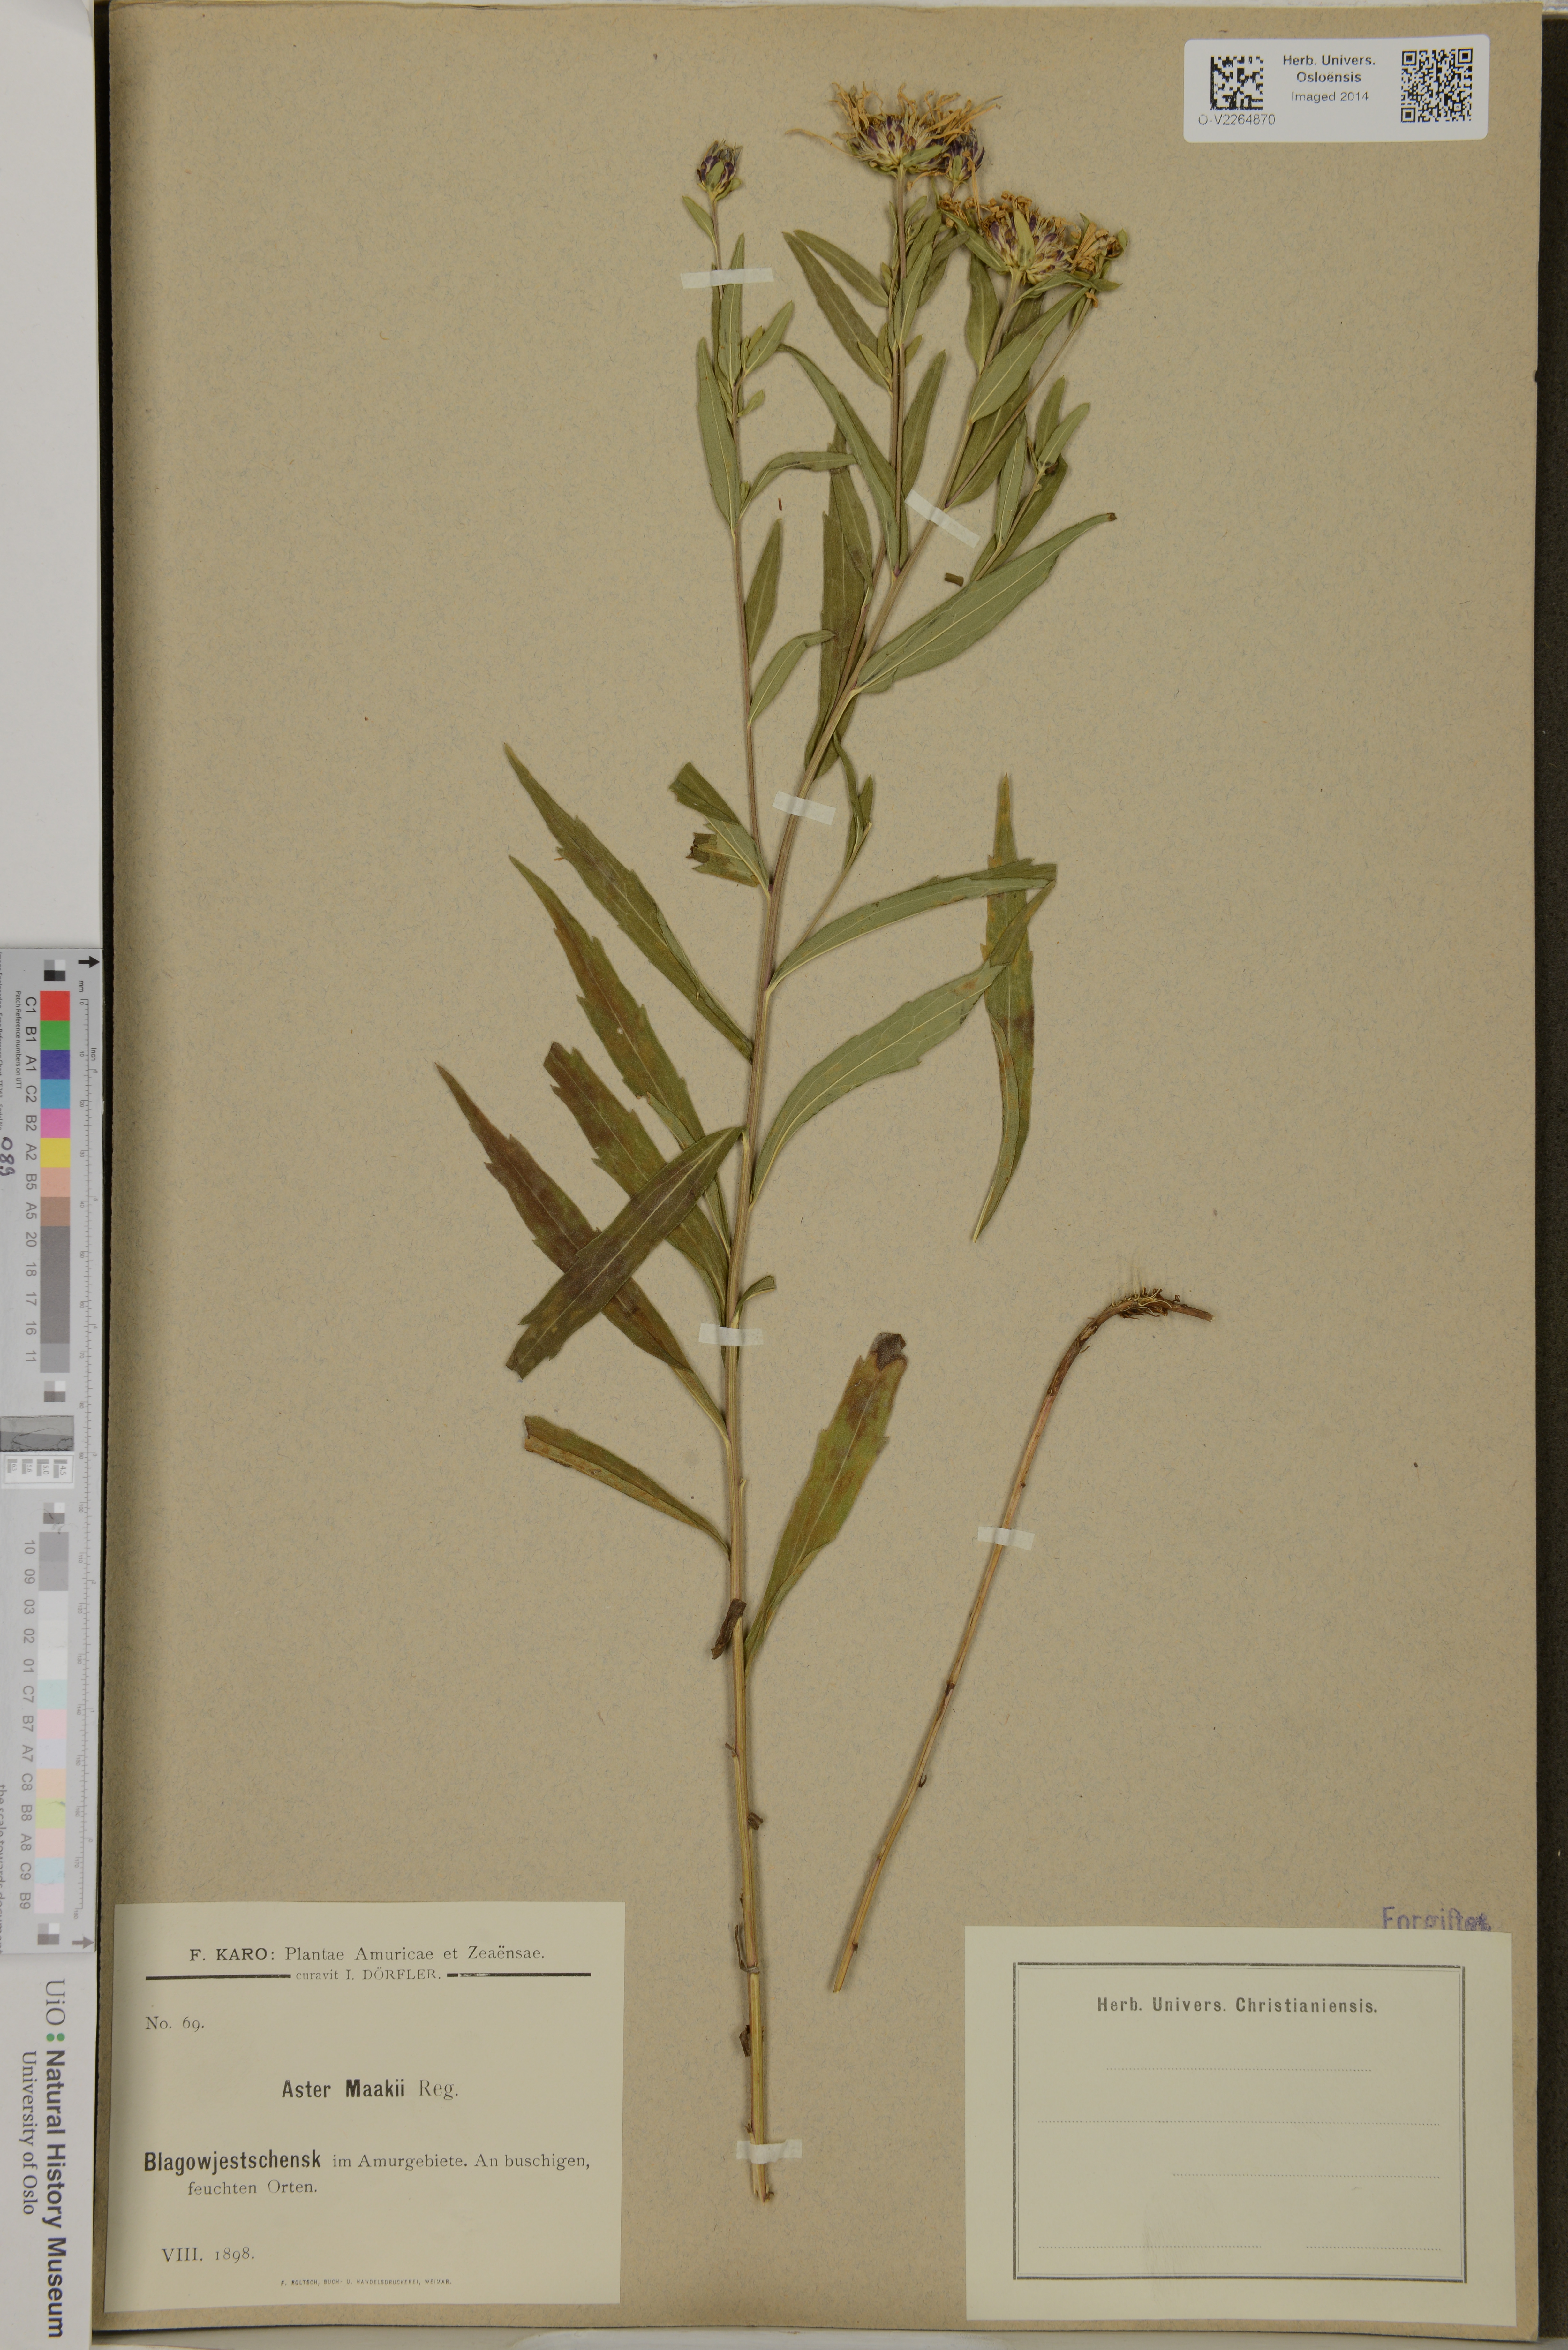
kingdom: Plantae
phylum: Tracheophyta
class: Magnoliopsida
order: Asterales
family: Asteraceae
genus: Aster
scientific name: Aster maackii
